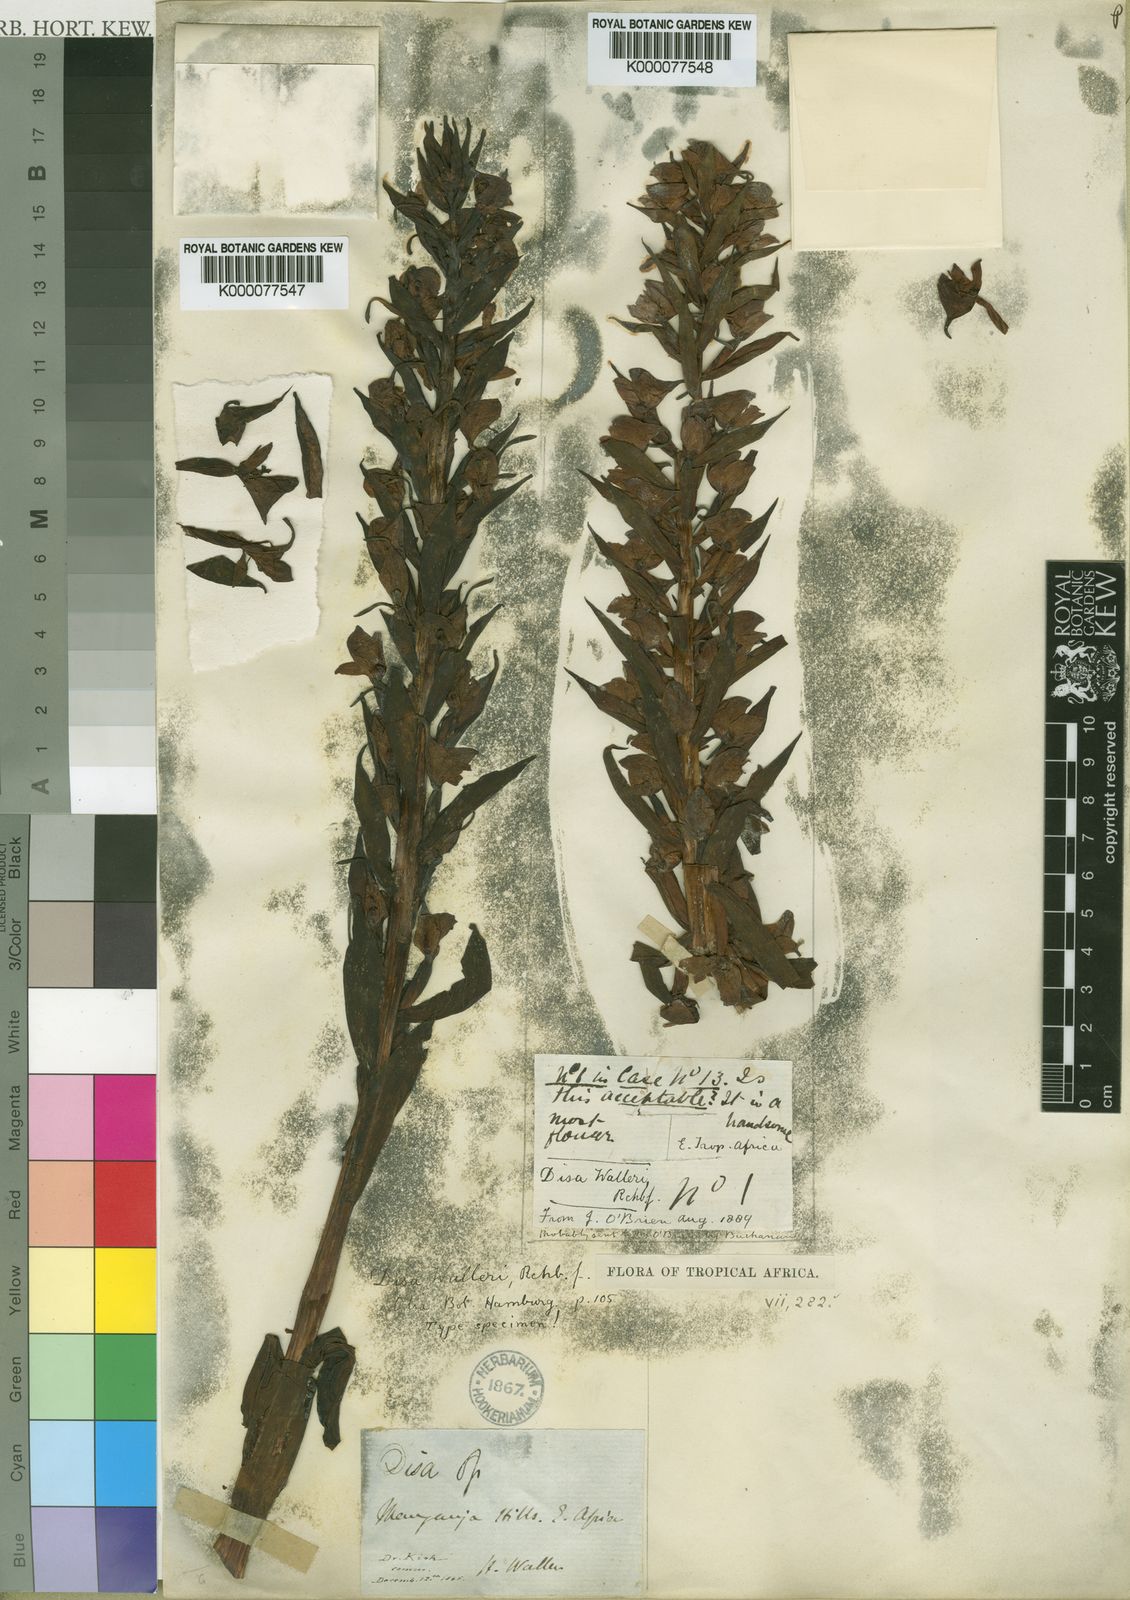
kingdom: Plantae
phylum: Tracheophyta
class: Liliopsida
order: Asparagales
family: Orchidaceae
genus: Disa
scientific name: Disa walleri
